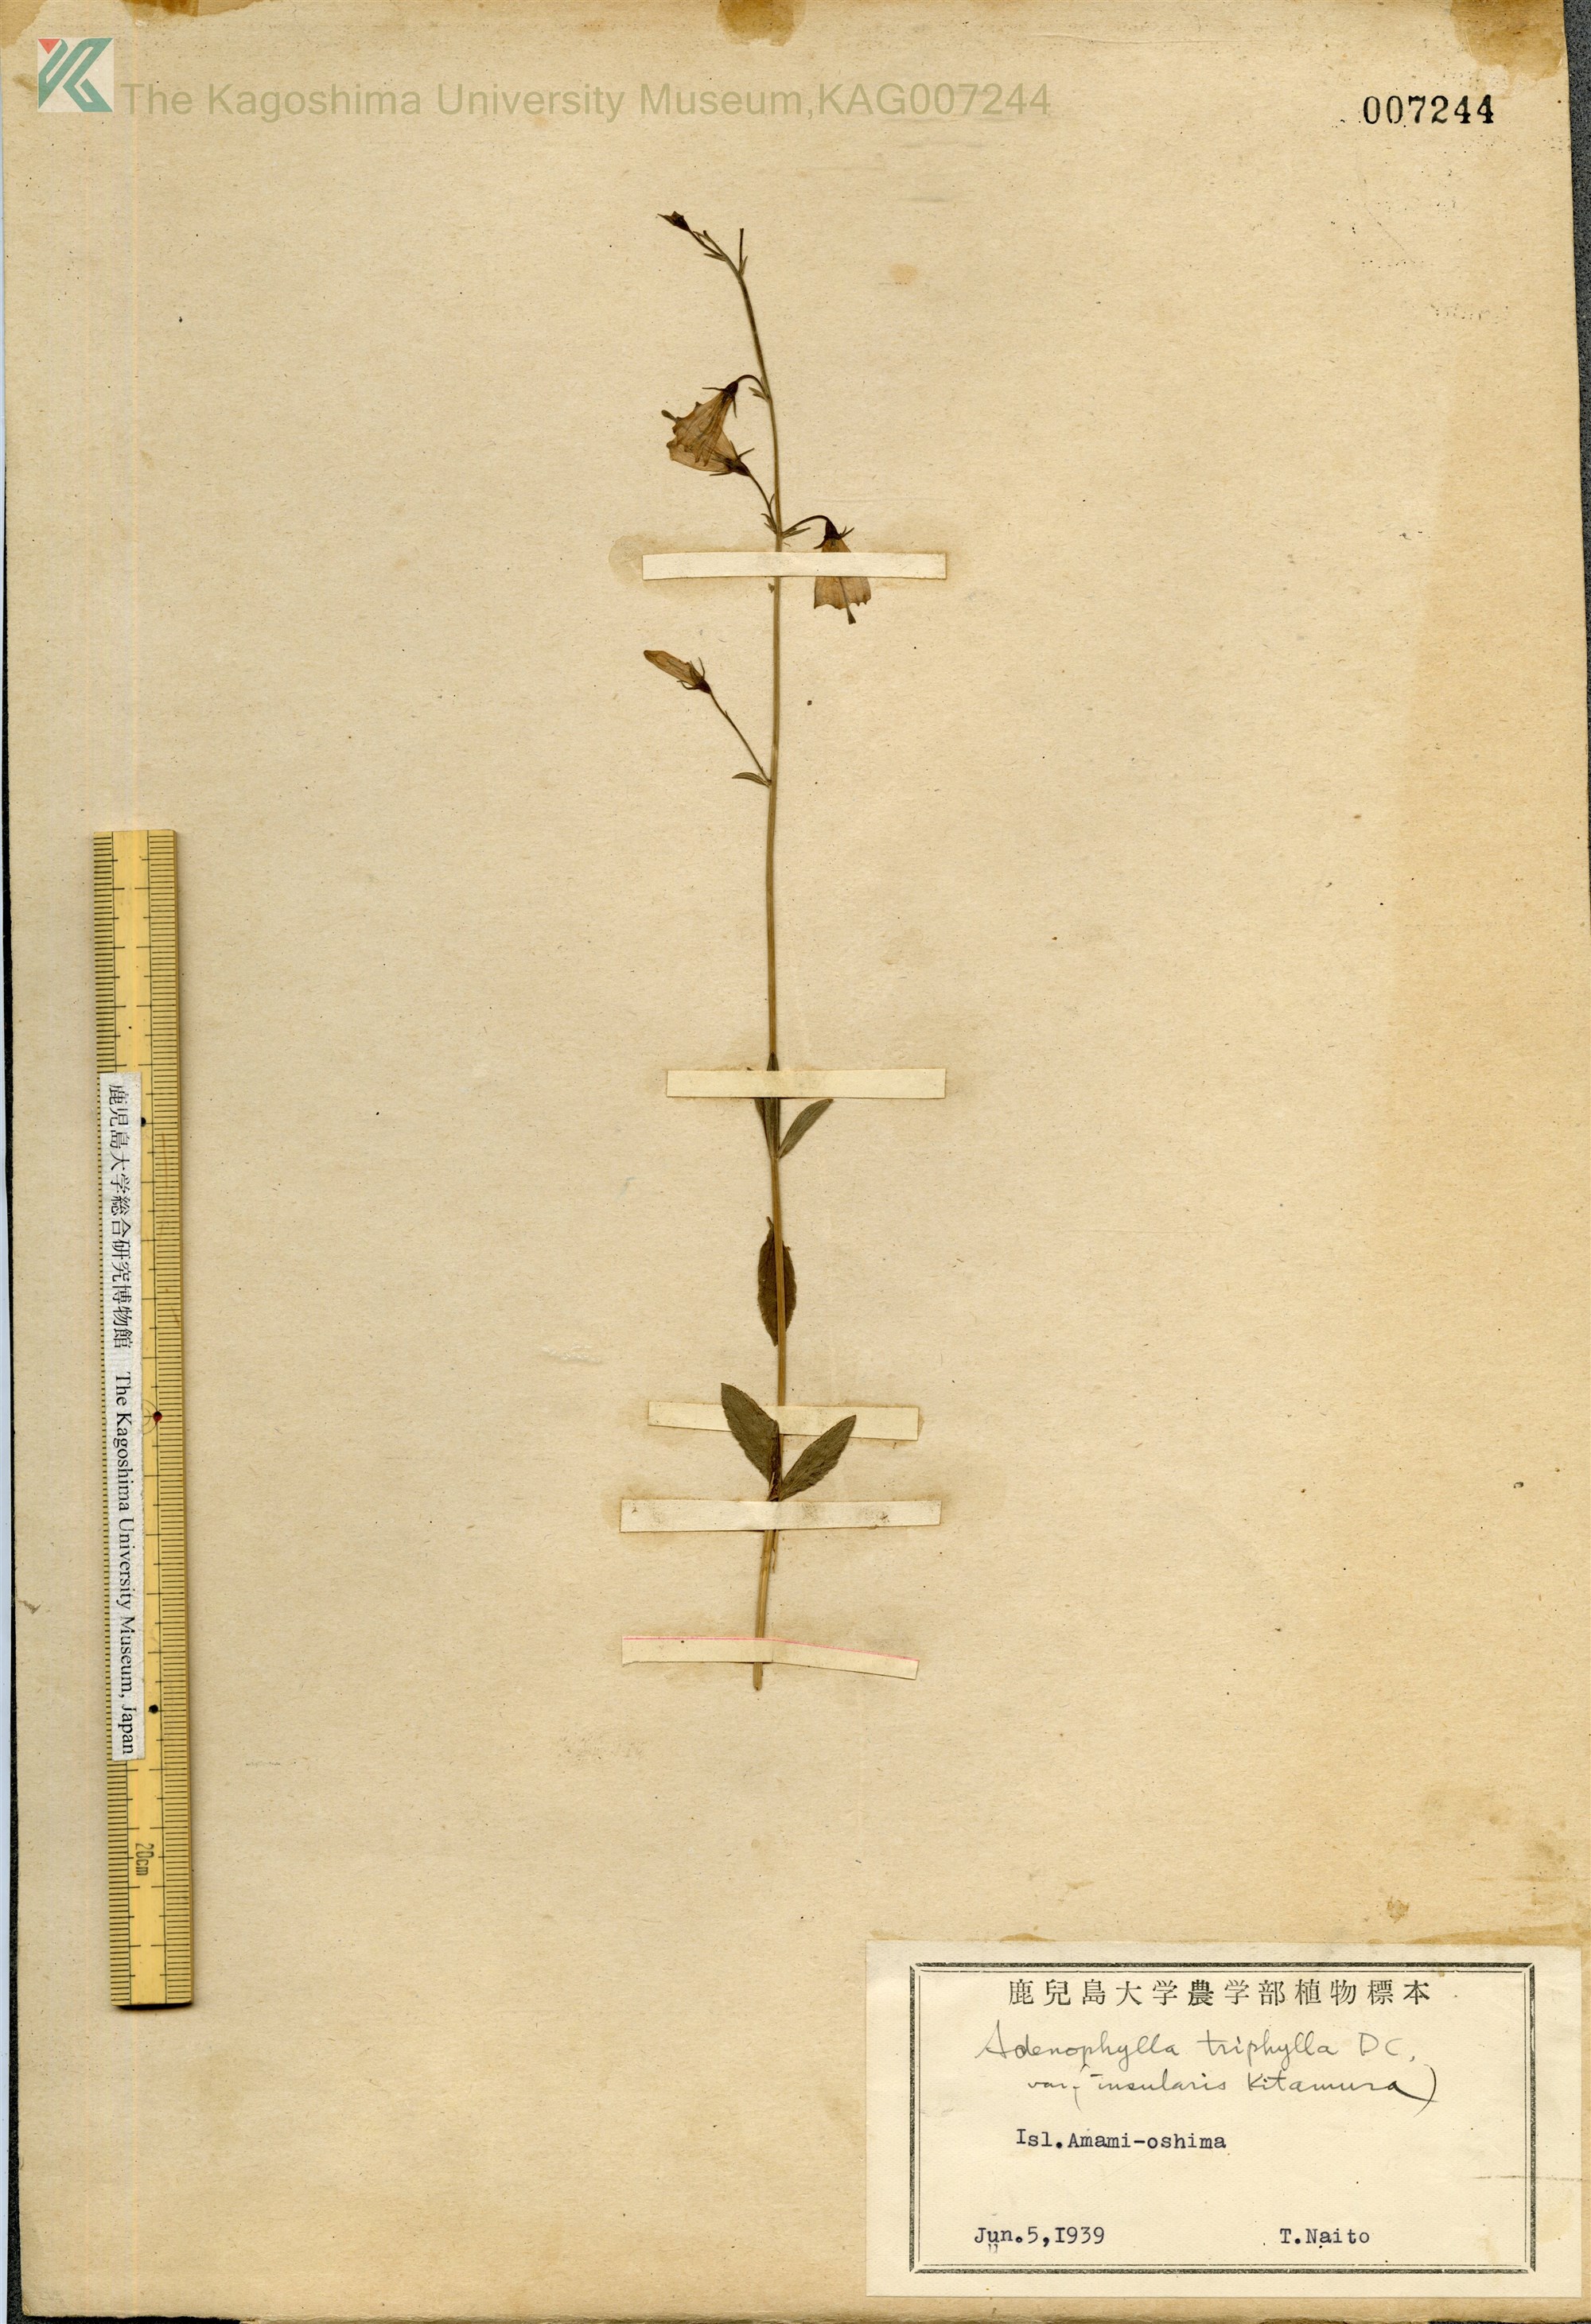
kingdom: Plantae
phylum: Tracheophyta
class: Magnoliopsida
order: Asterales
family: Campanulaceae
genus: Adenophora
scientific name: Adenophora tashiroi
